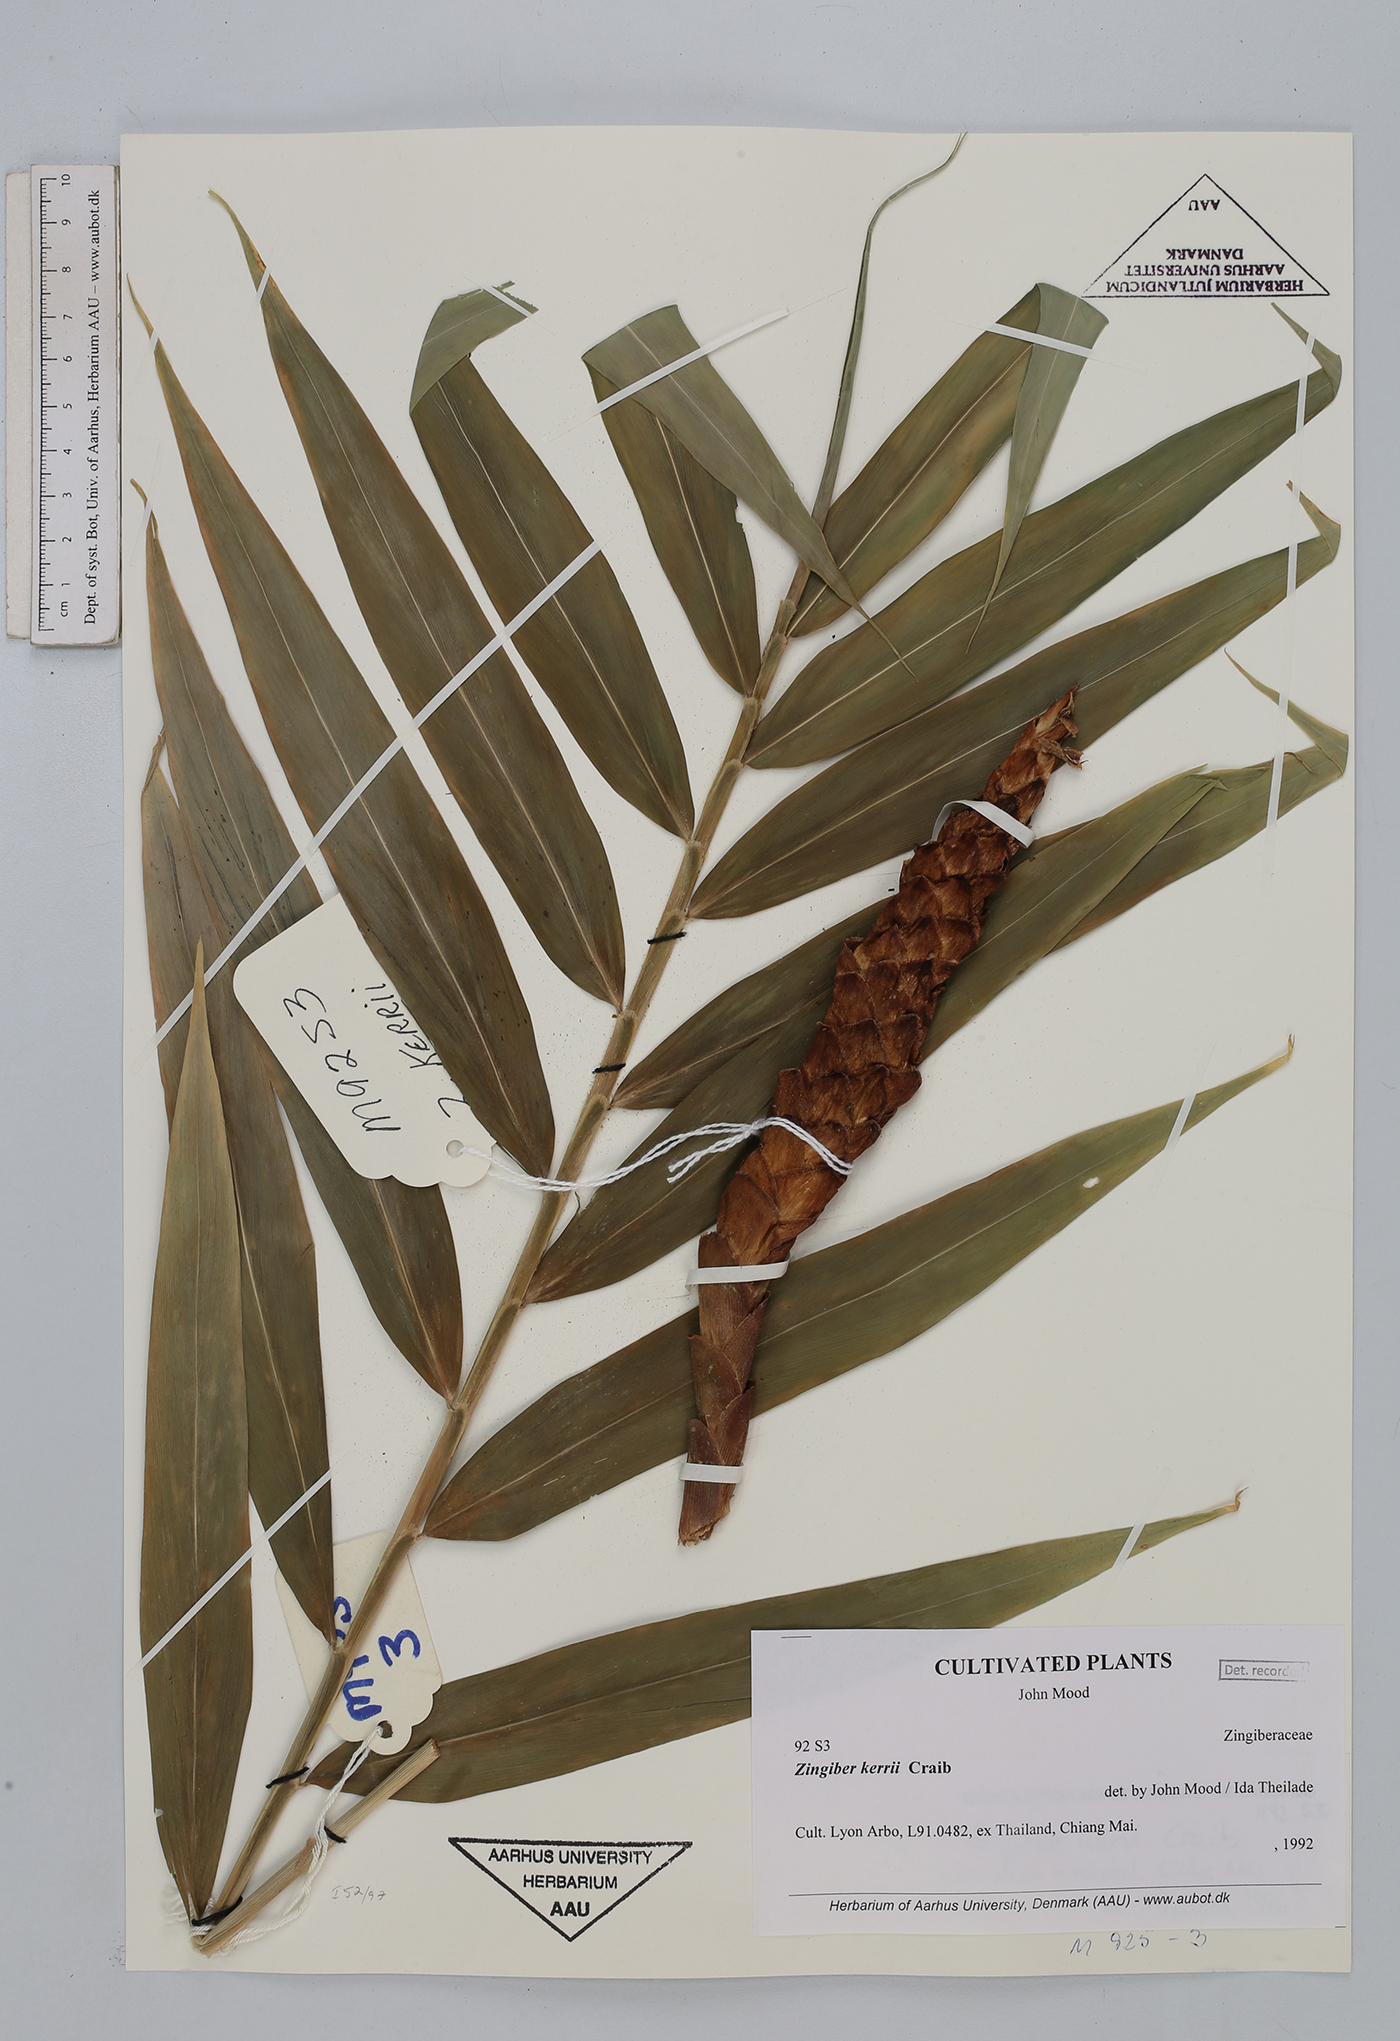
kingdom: Plantae
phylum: Tracheophyta
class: Liliopsida
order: Zingiberales
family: Zingiberaceae
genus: Zingiber
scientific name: Zingiber kerrii
